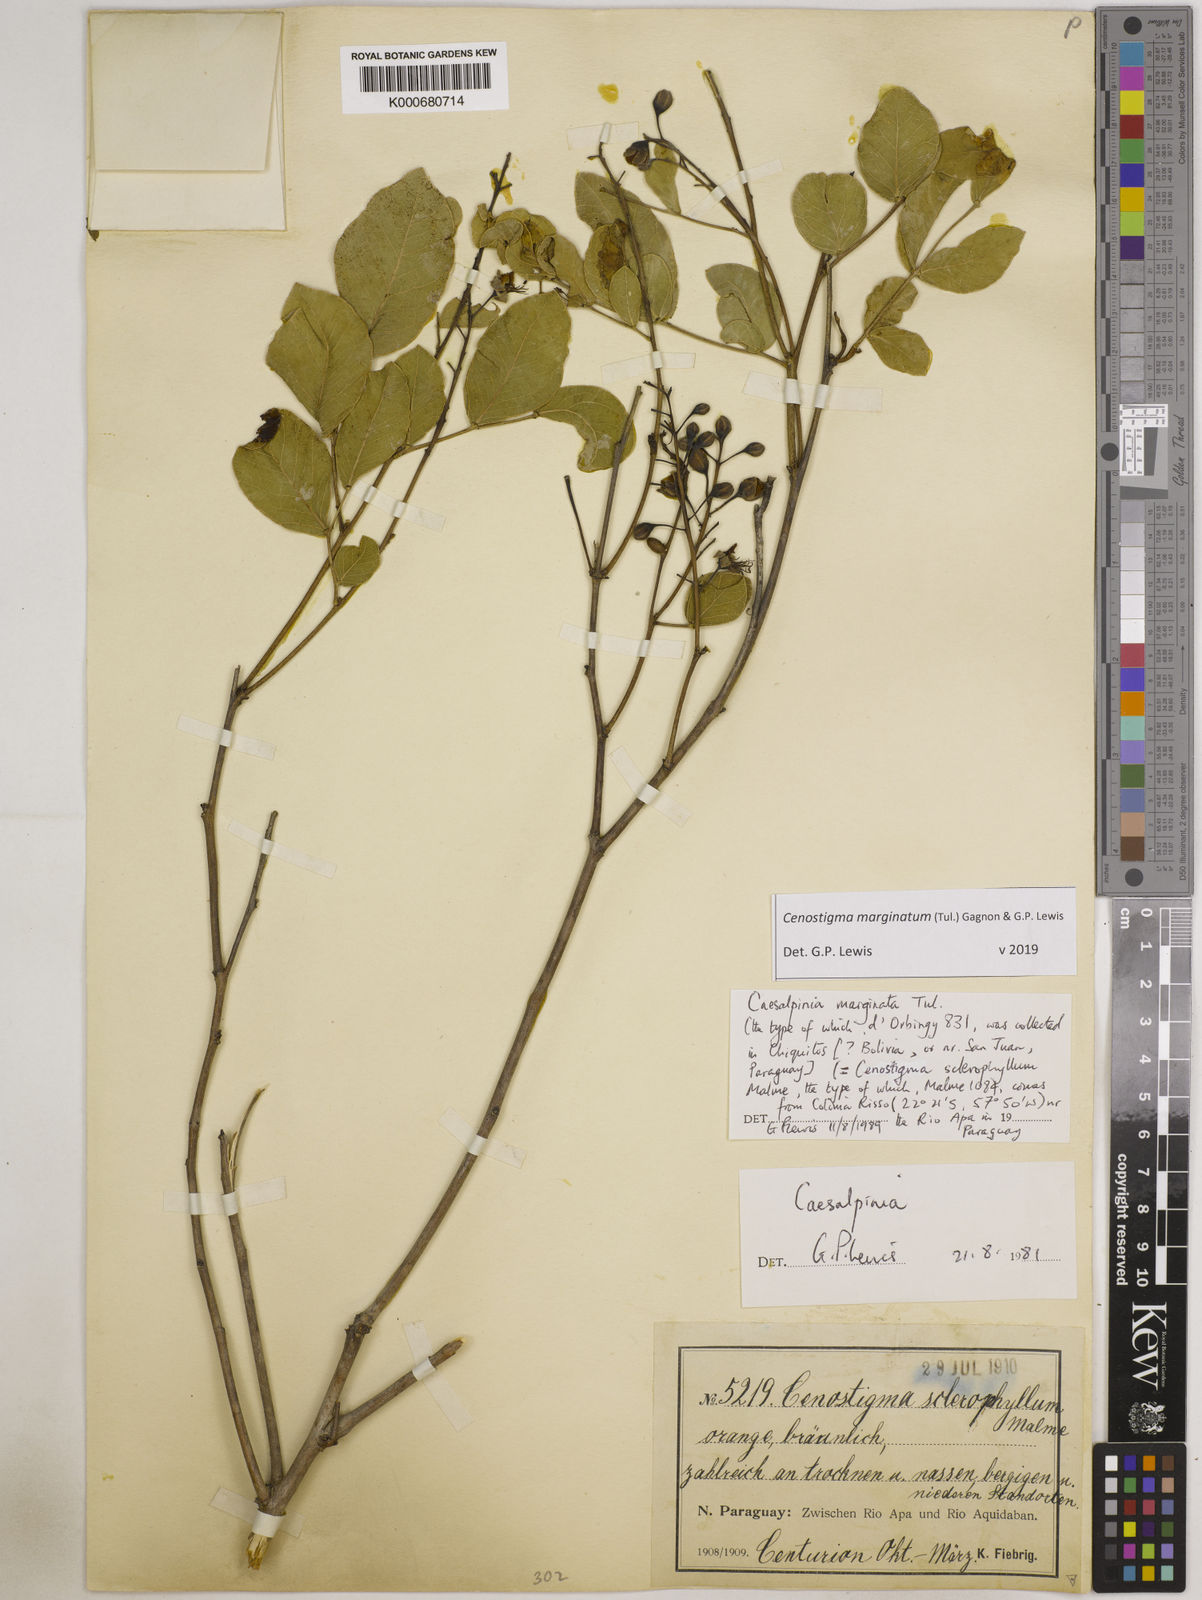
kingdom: Plantae
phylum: Tracheophyta
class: Magnoliopsida
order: Fabales
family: Fabaceae
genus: Cenostigma
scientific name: Cenostigma marginatum
